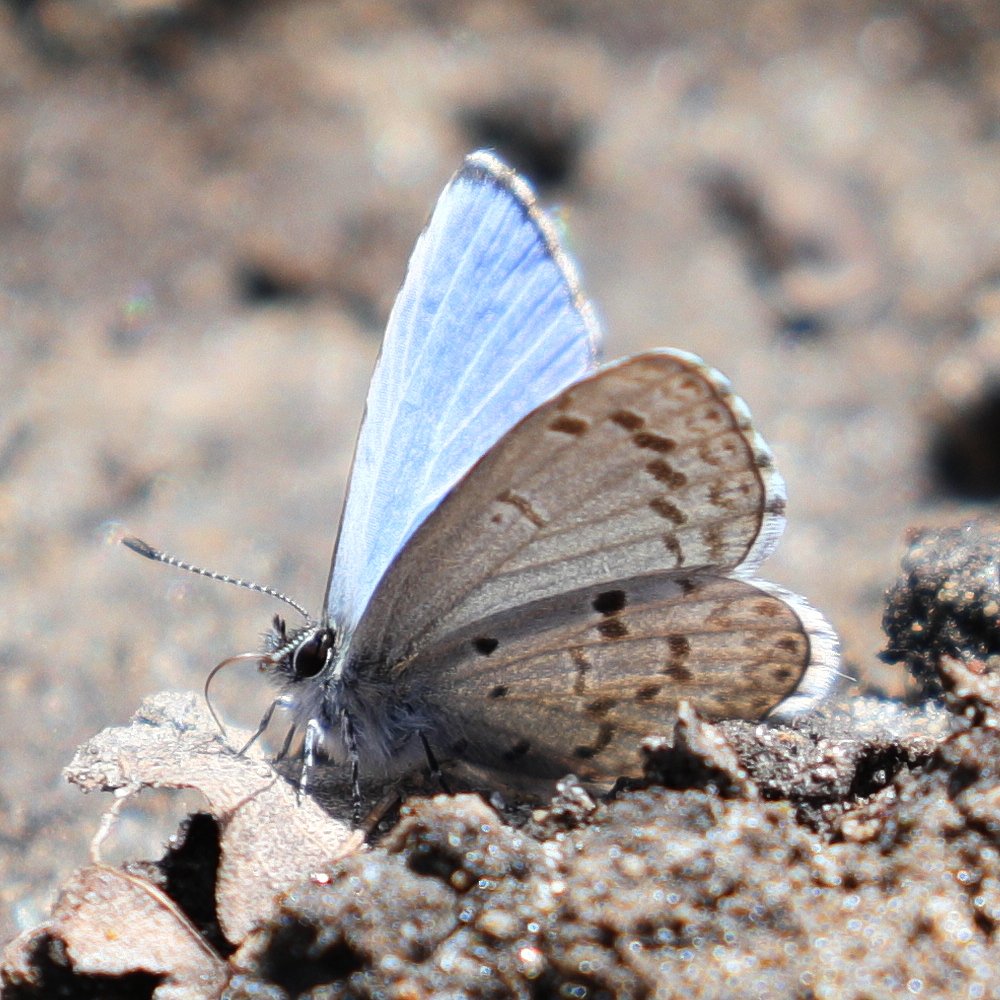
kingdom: Animalia
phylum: Arthropoda
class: Insecta
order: Lepidoptera
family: Lycaenidae
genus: Celastrina
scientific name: Celastrina lucia
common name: Northern Spring Azure
